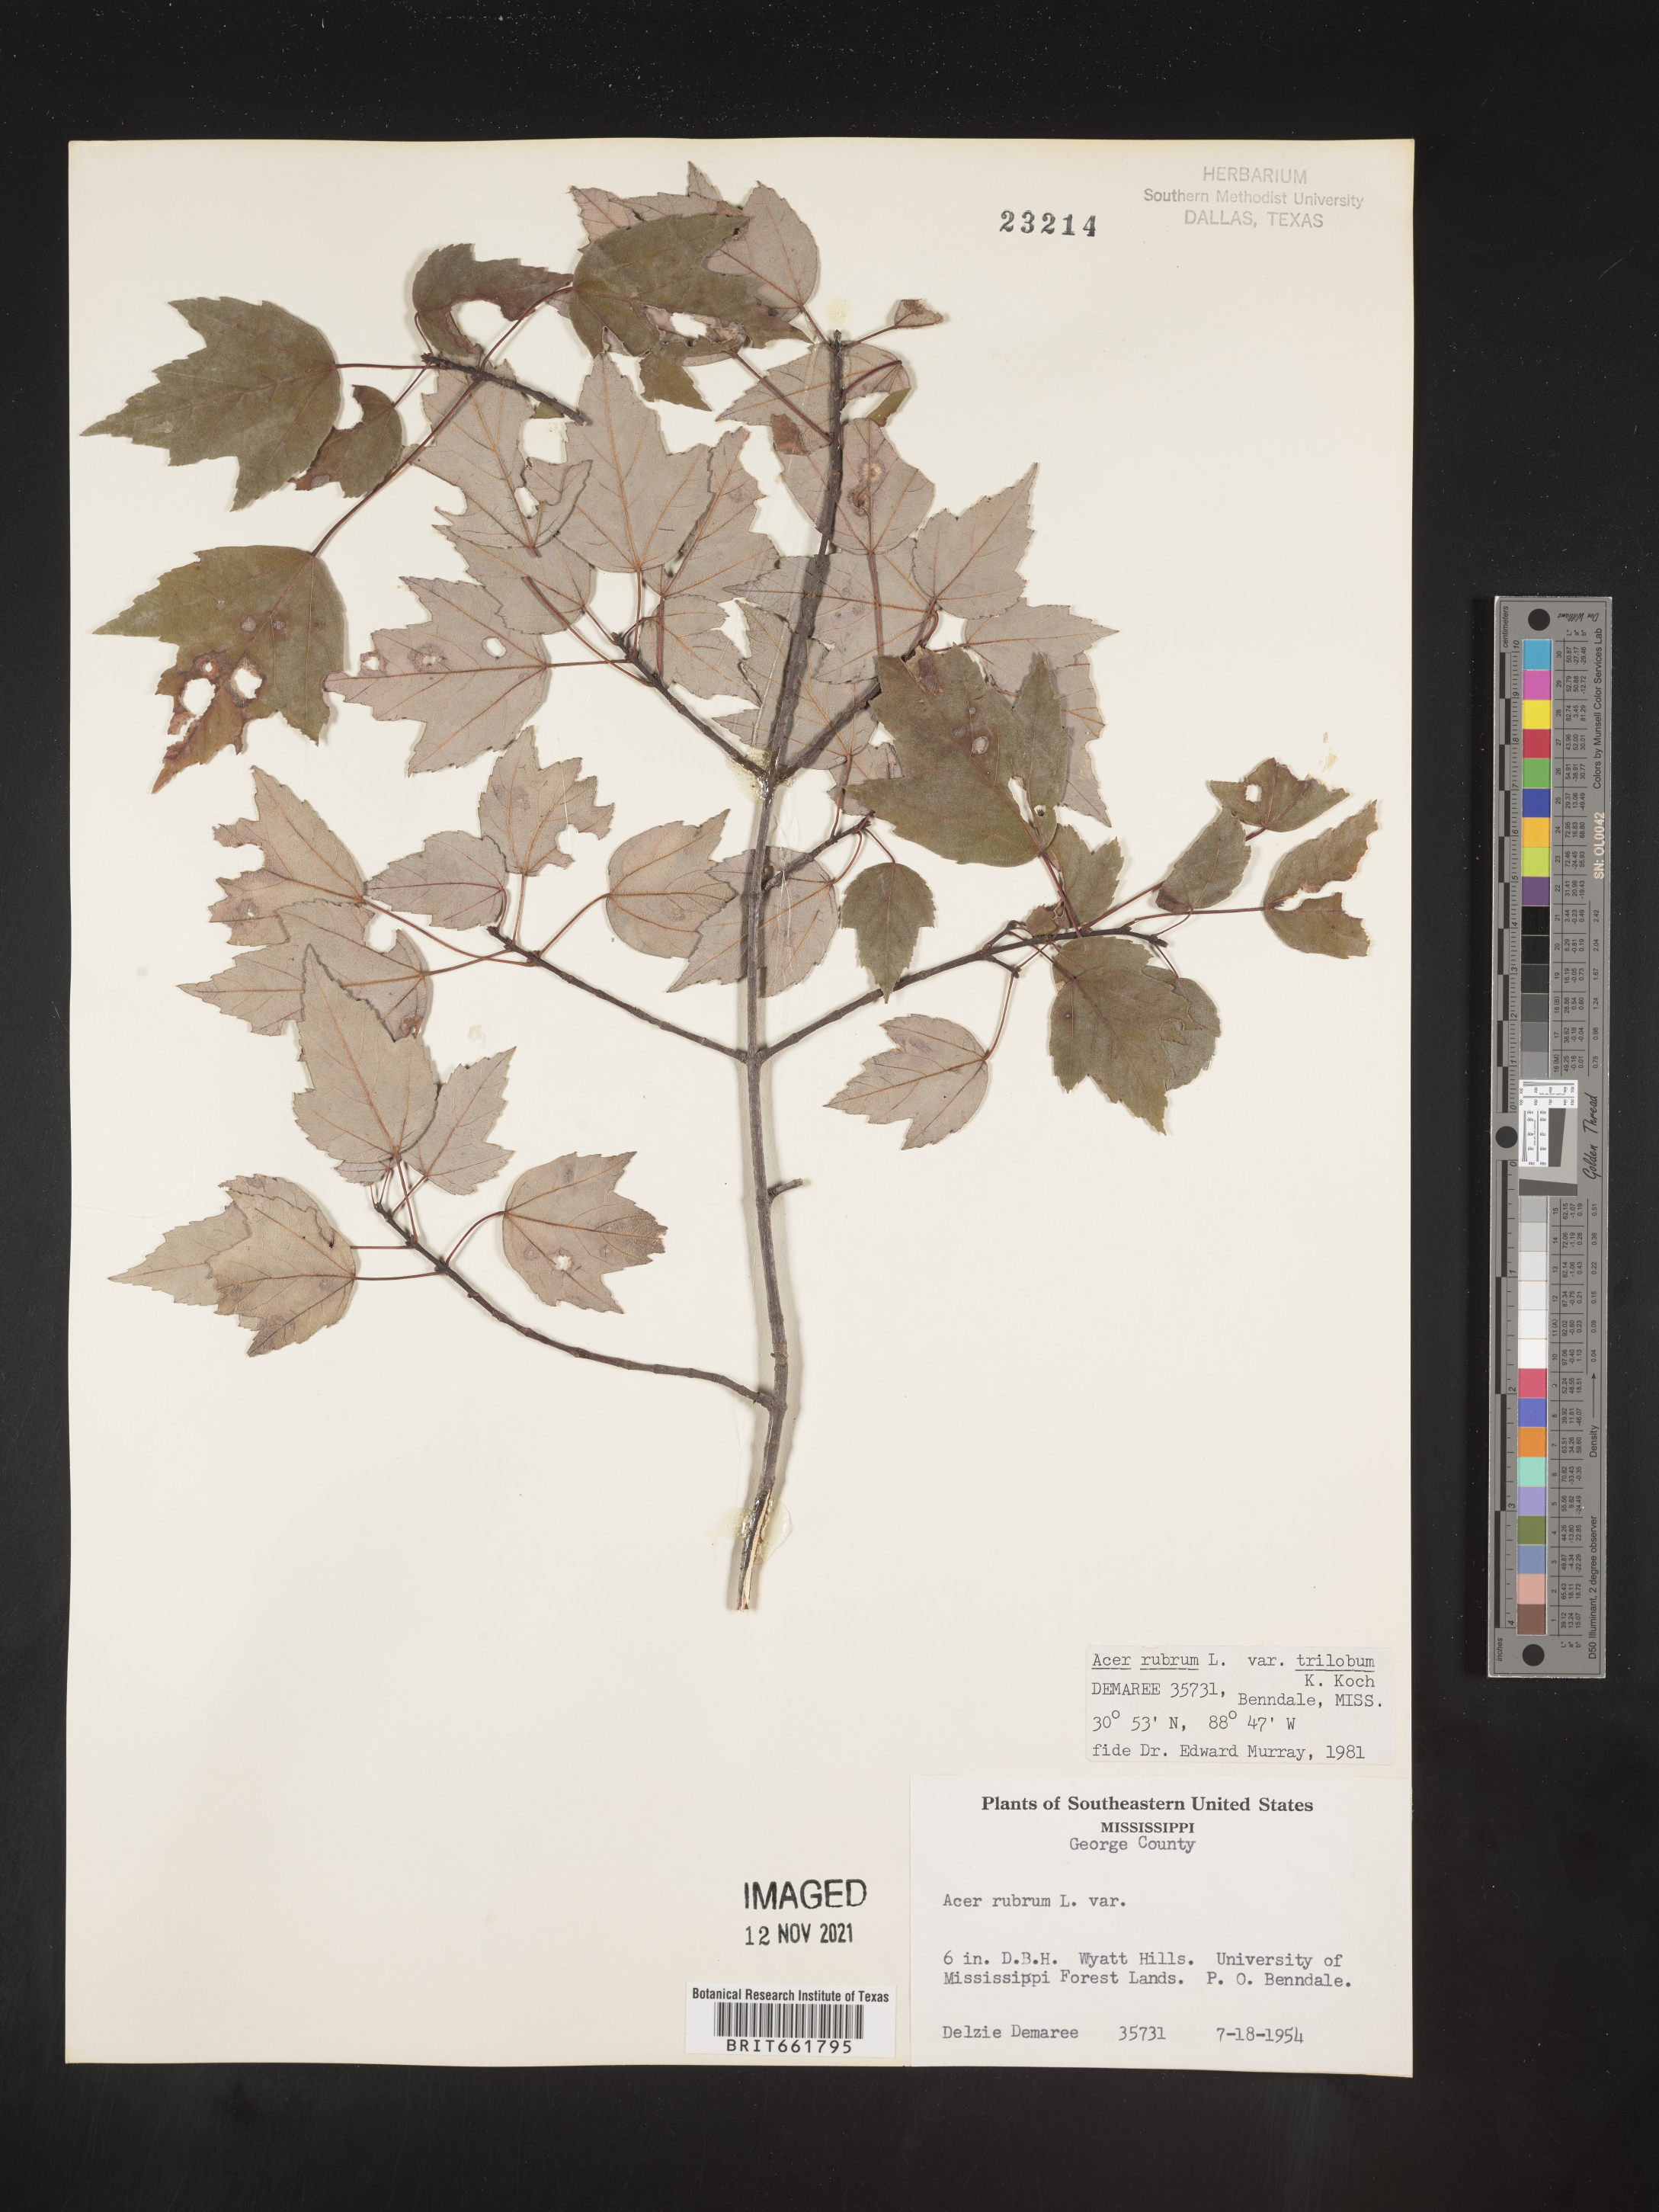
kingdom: Plantae
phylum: Tracheophyta
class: Magnoliopsida
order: Sapindales
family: Sapindaceae
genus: Acer
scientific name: Acer rubrum
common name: Red maple
